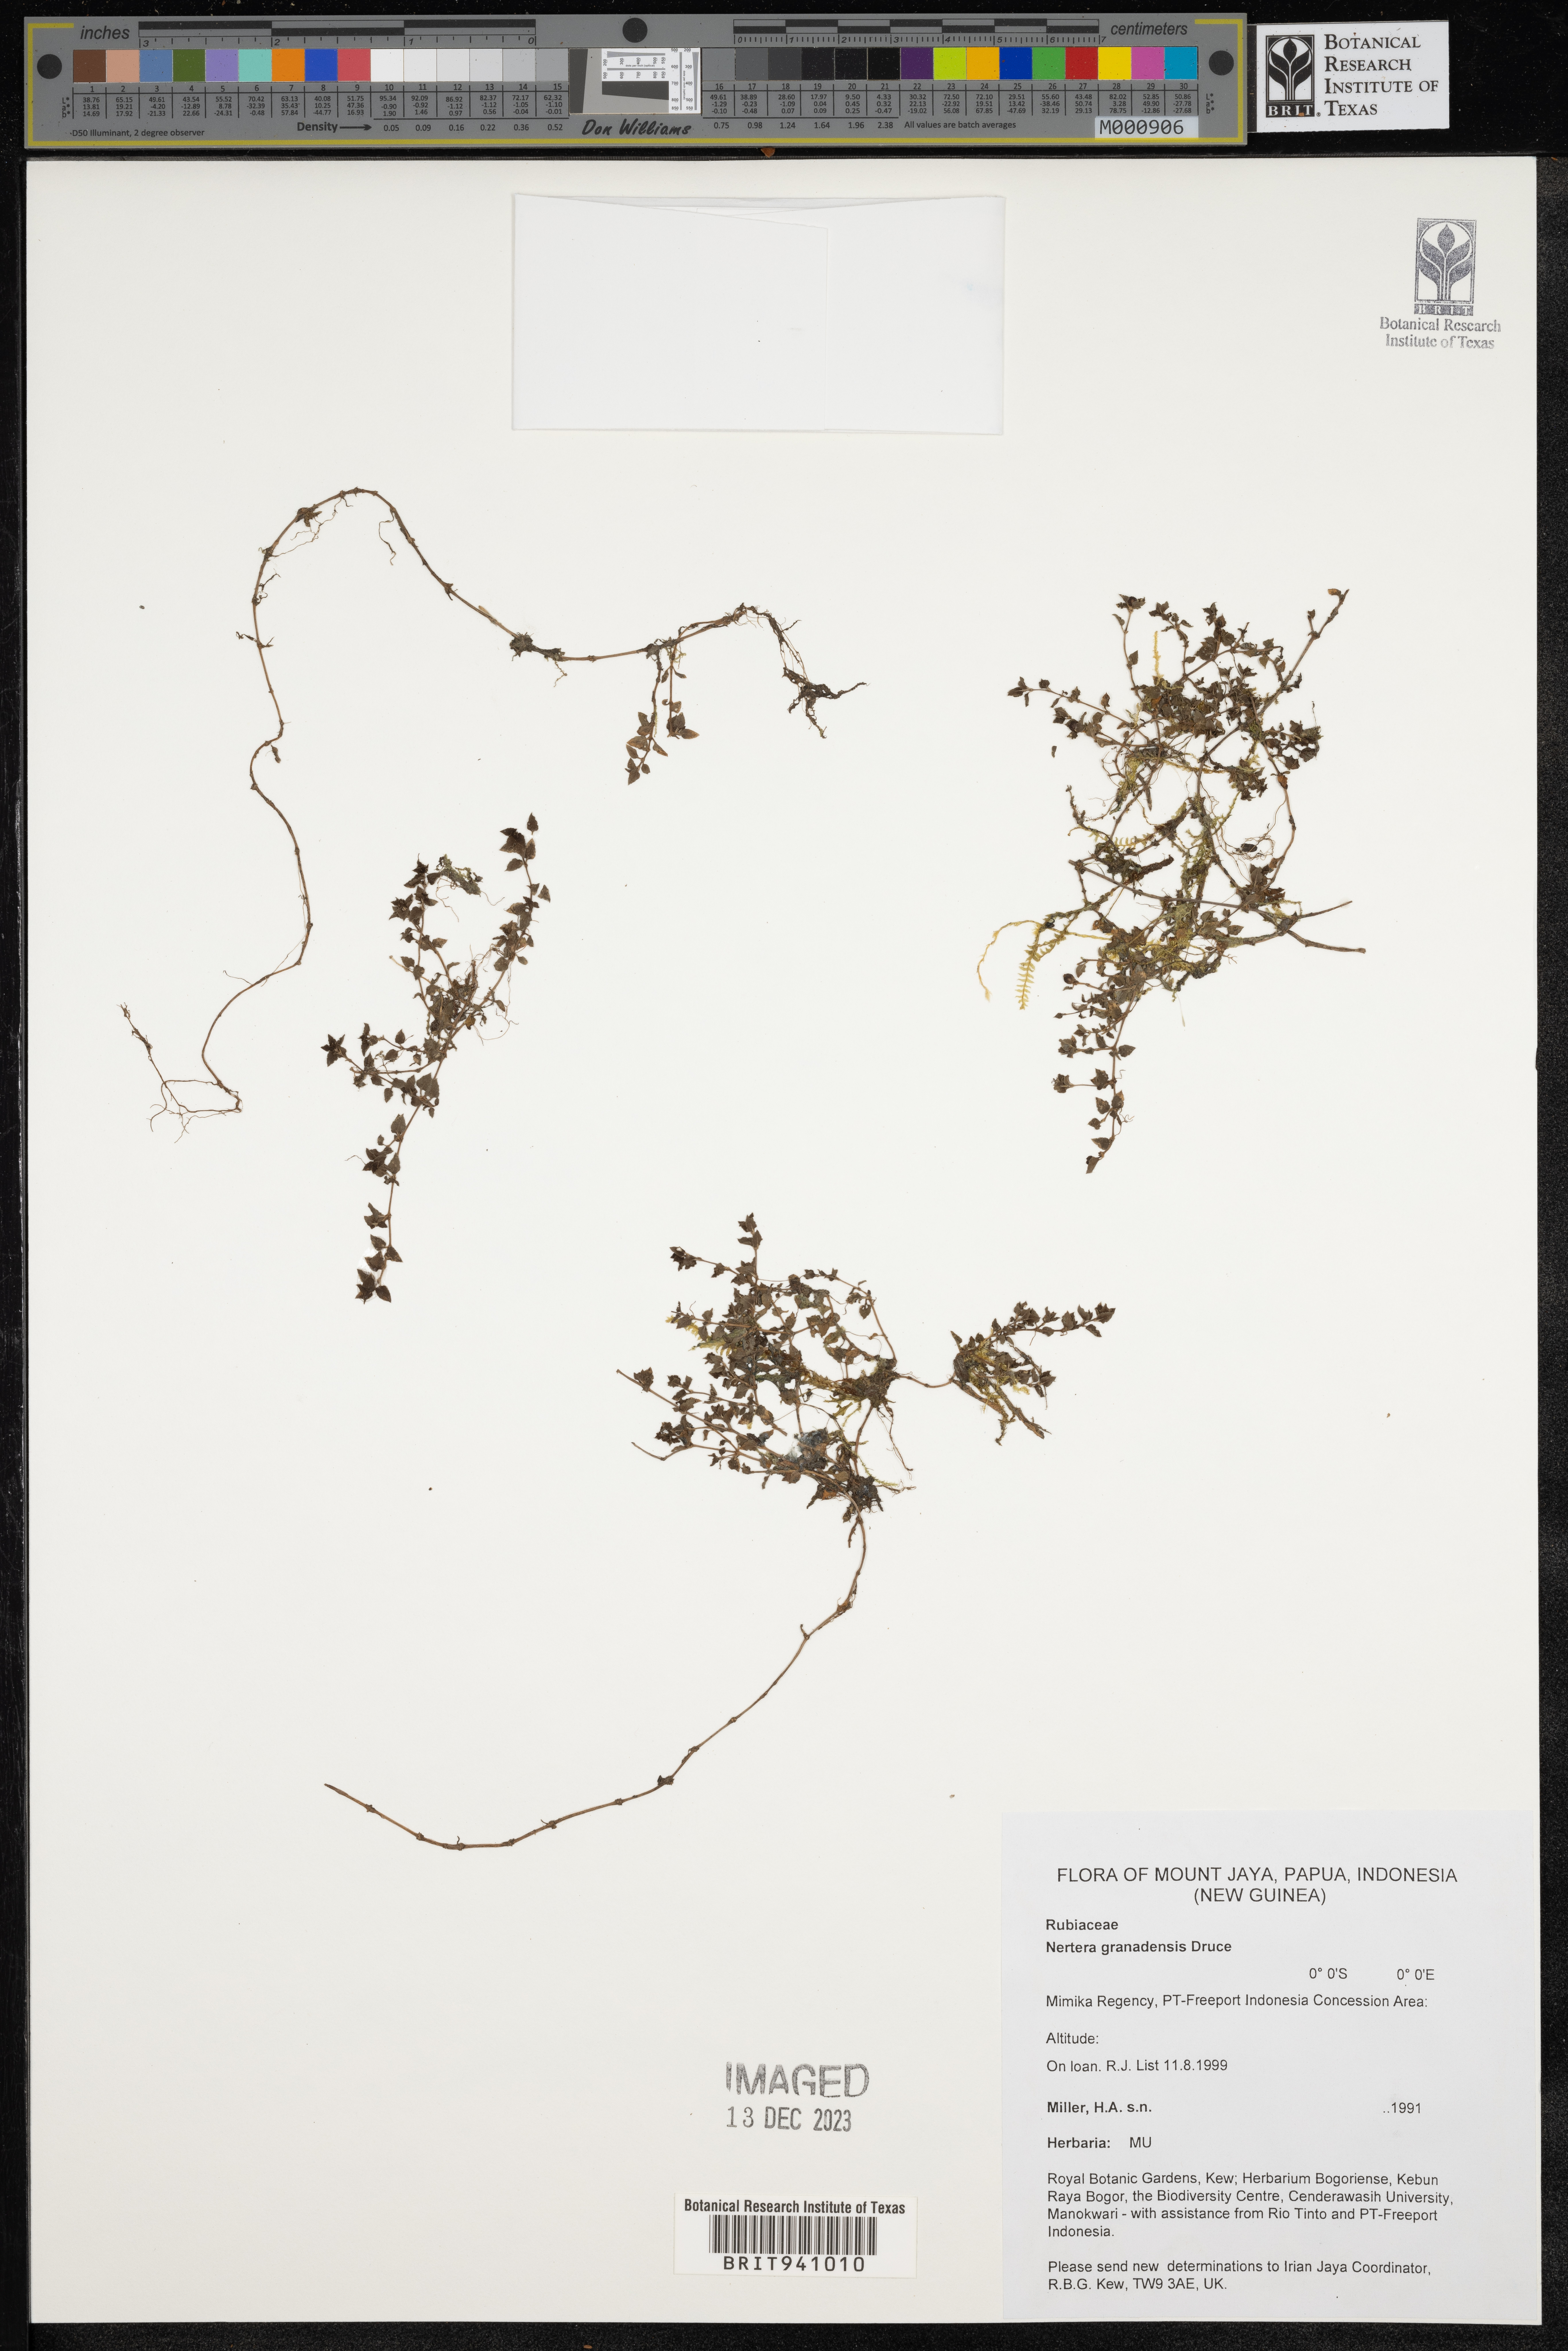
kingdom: Plantae
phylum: Tracheophyta
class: Magnoliopsida
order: Gentianales
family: Rubiaceae
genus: Nertera
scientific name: Nertera
